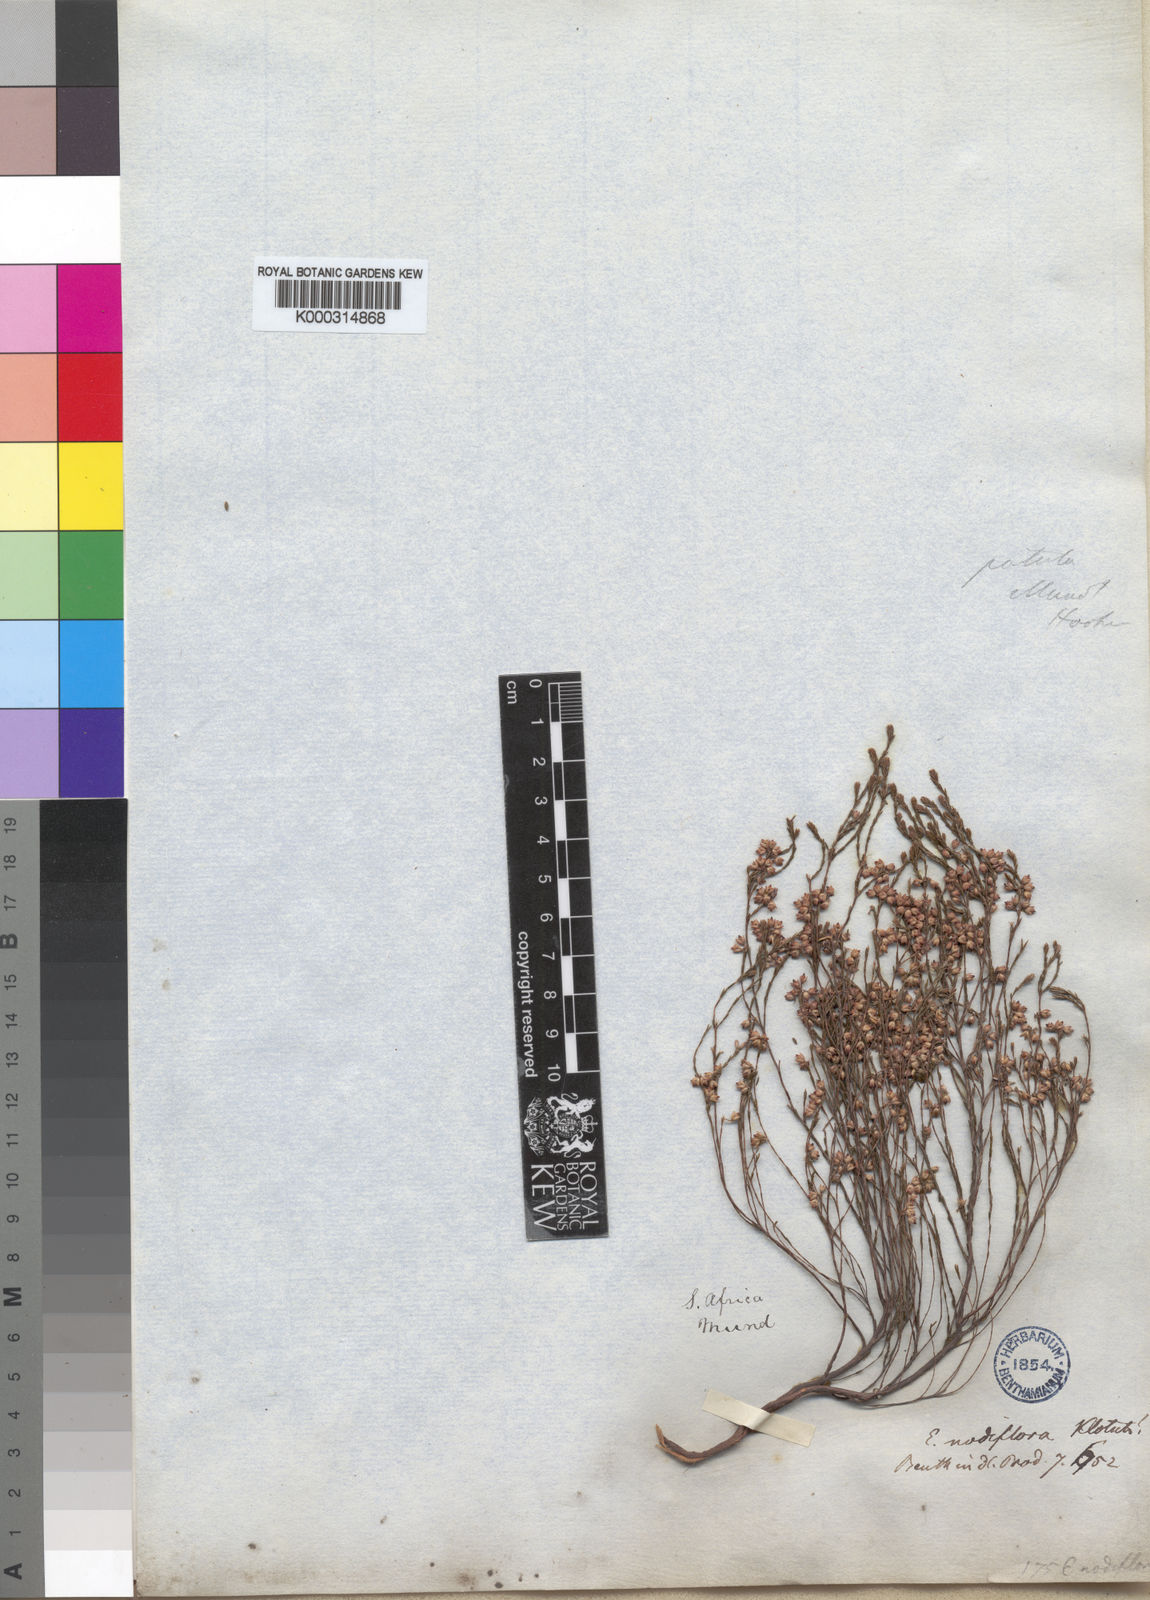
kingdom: Plantae
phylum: Tracheophyta
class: Magnoliopsida
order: Ericales
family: Ericaceae
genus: Erica
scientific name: Erica
